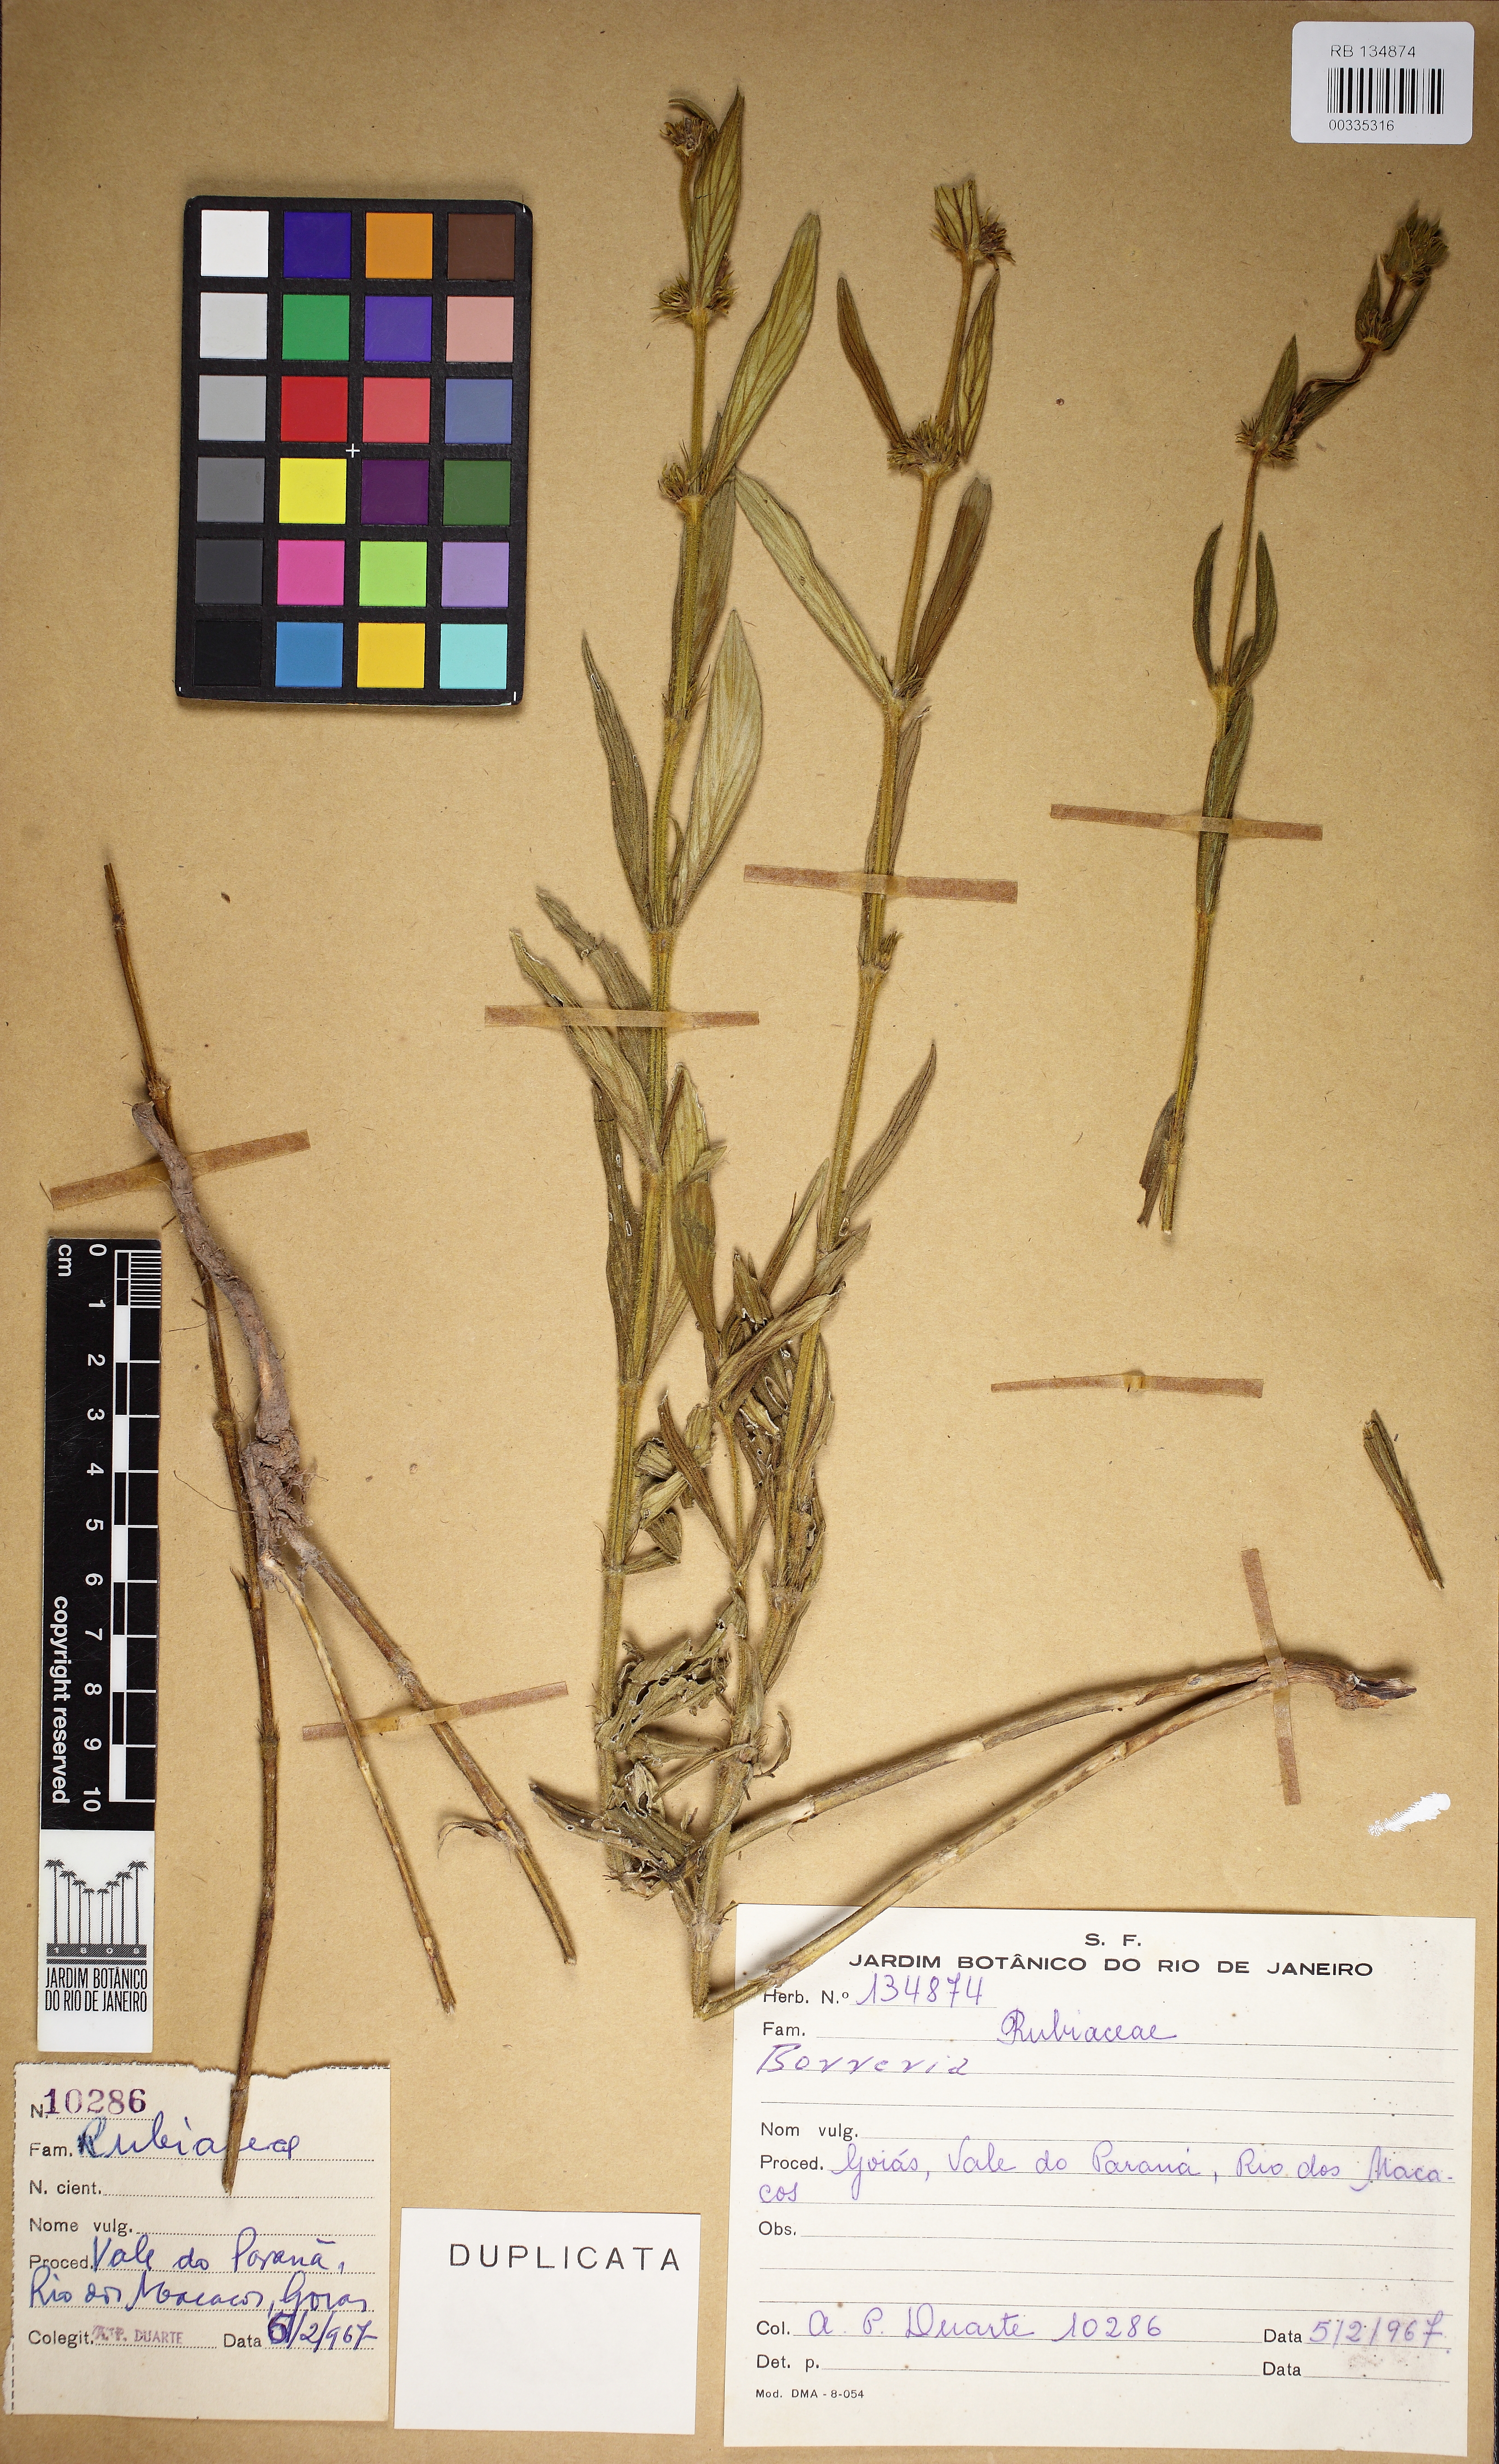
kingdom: Plantae
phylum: Tracheophyta
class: Magnoliopsida
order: Gentianales
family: Rubiaceae
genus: Spermacoce
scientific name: Spermacoce latifolia
